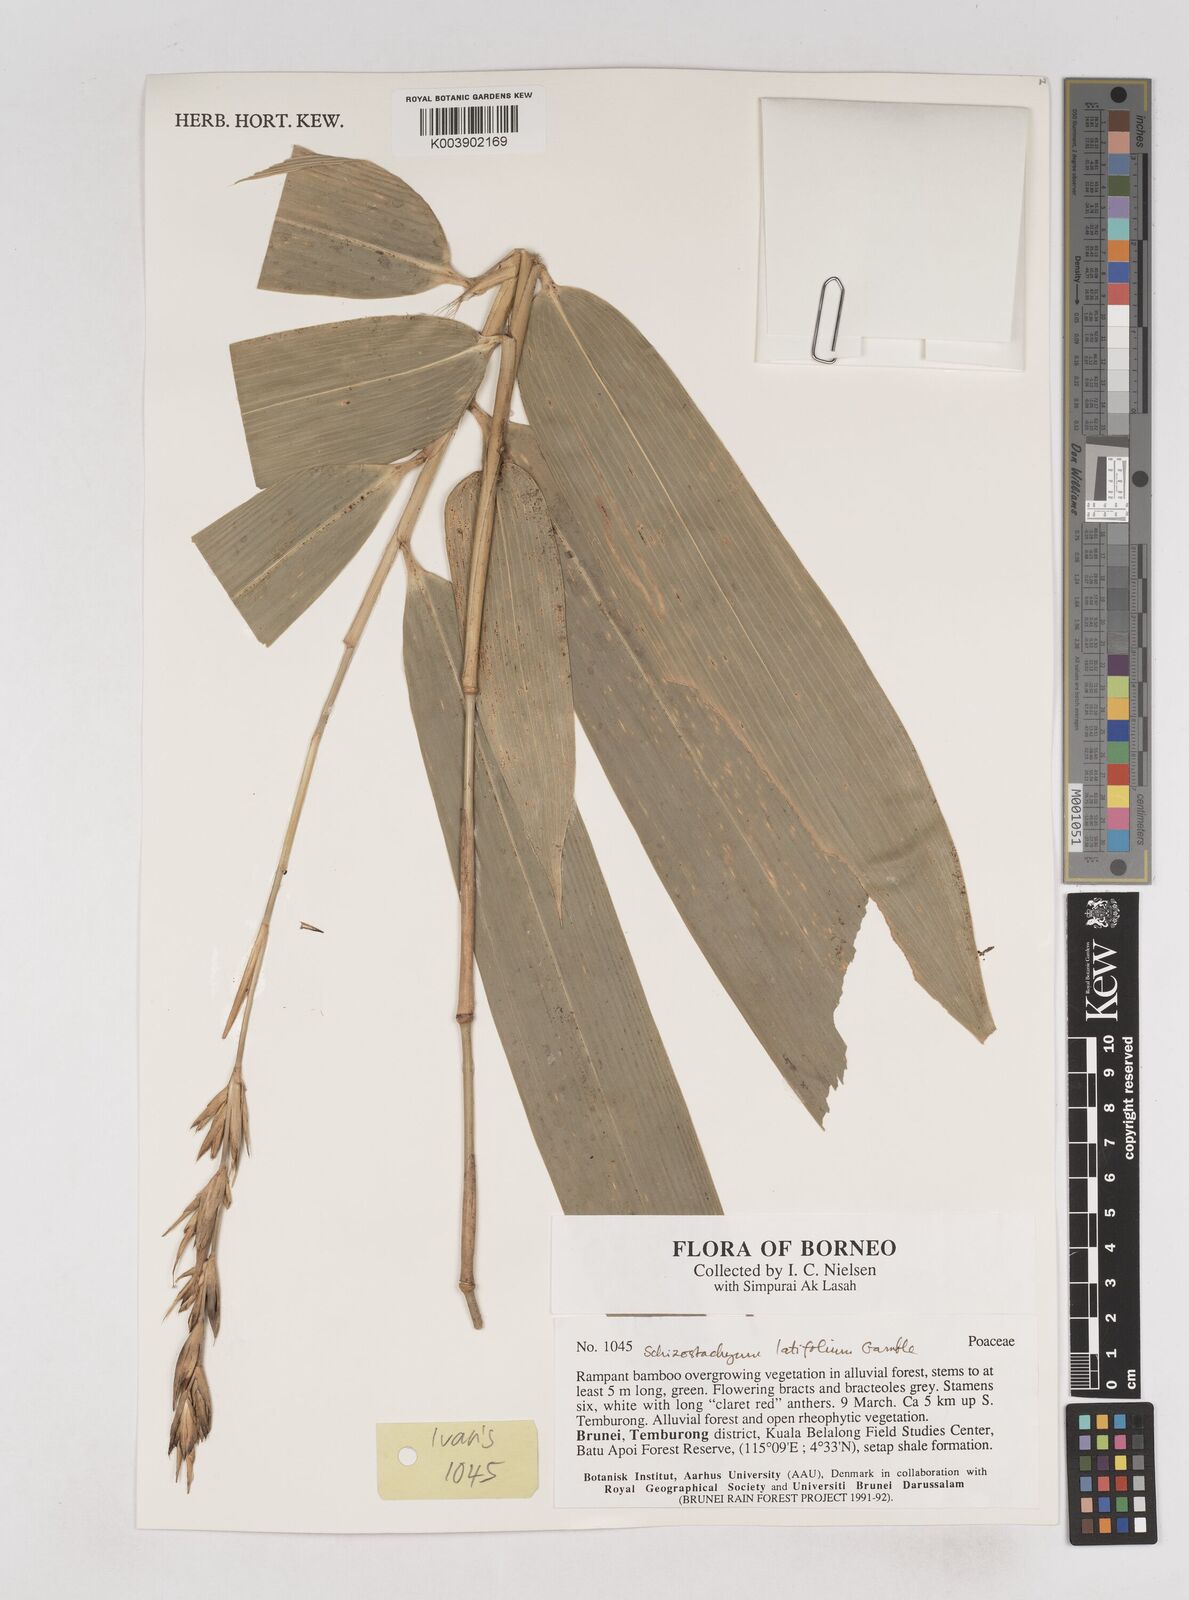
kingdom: Plantae
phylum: Tracheophyta
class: Liliopsida
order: Poales
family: Poaceae
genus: Schizostachyum
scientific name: Schizostachyum latifolium
